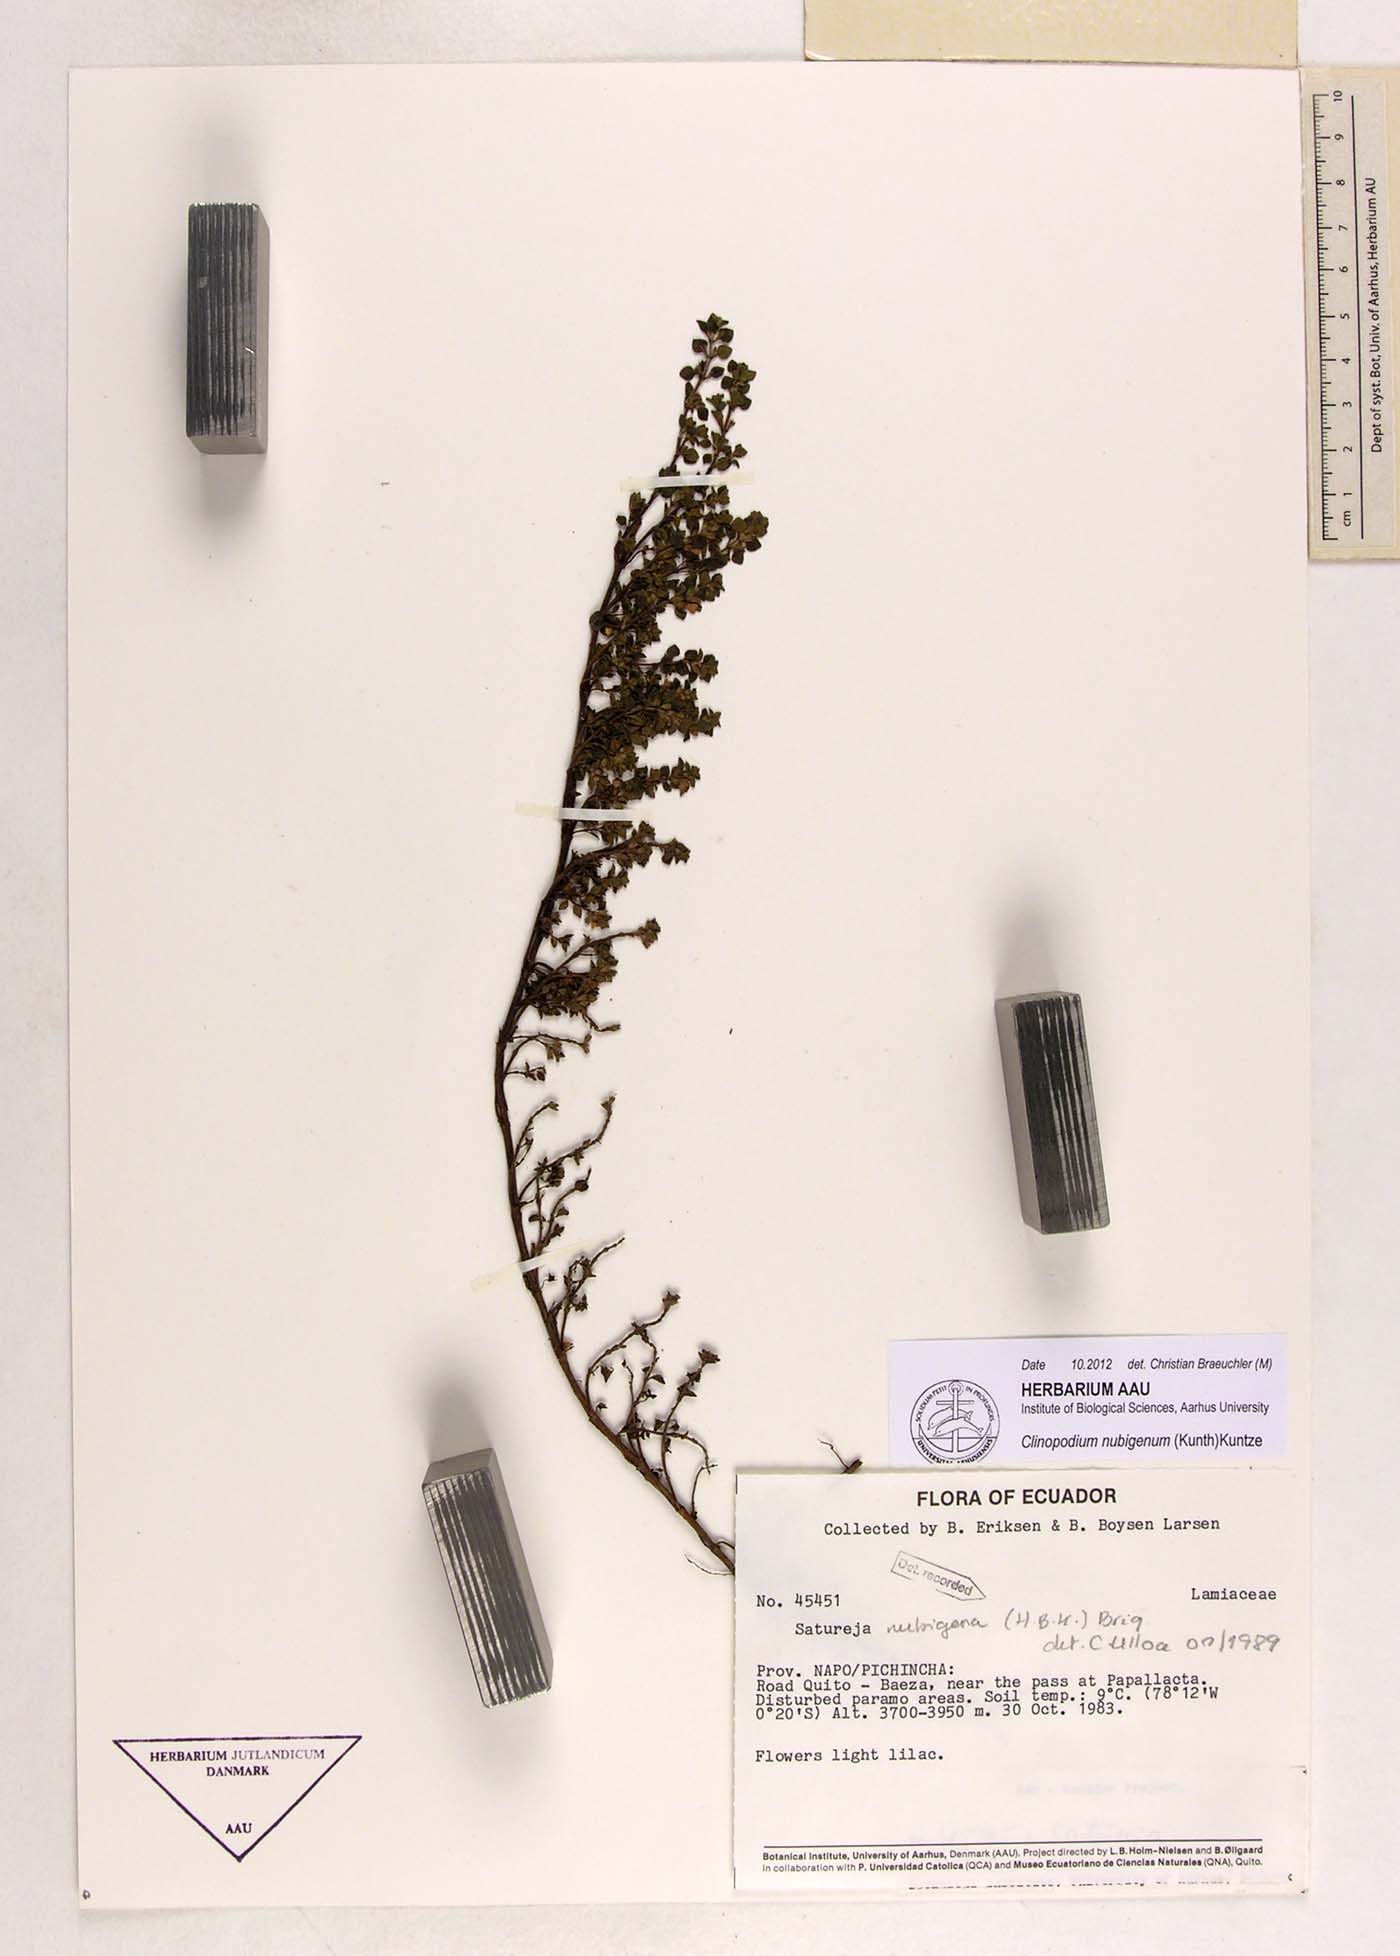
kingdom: Plantae
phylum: Tracheophyta
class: Magnoliopsida
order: Lamiales
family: Lamiaceae
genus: Clinopodium
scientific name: Clinopodium nubigenum
